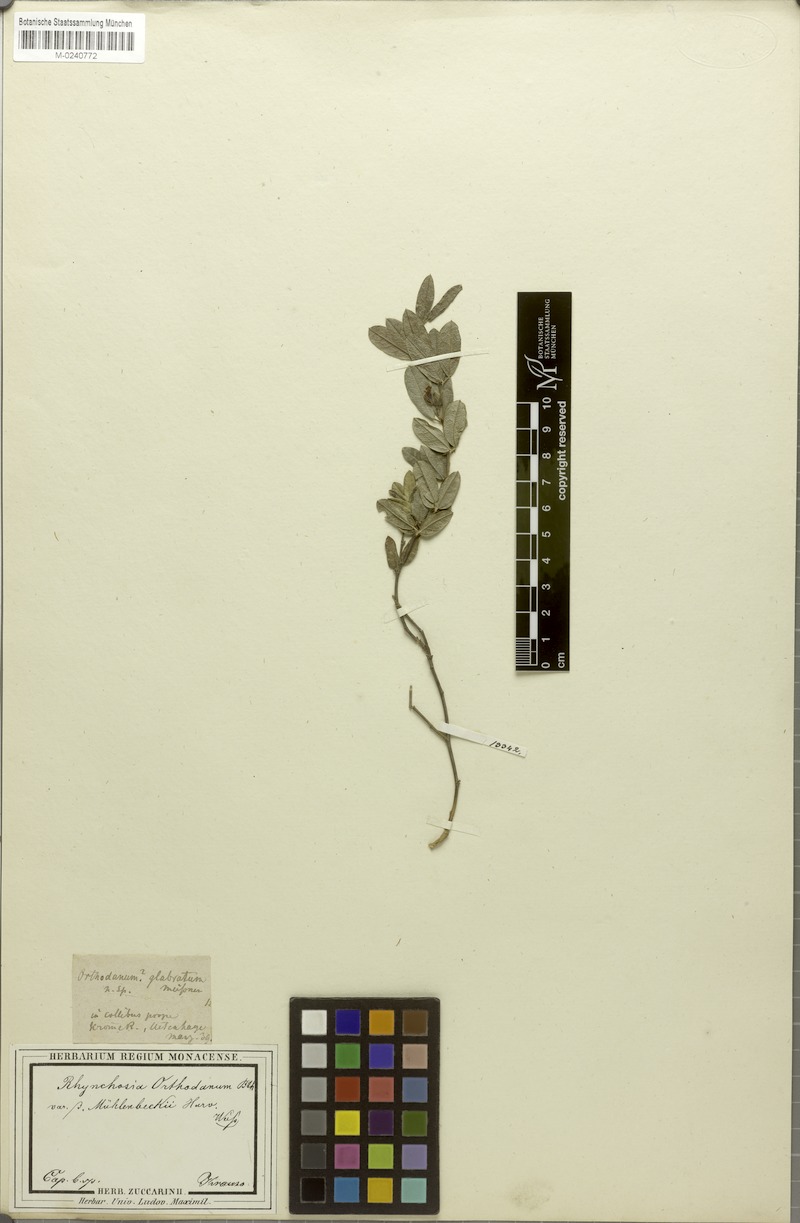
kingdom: Plantae
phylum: Tracheophyta
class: Magnoliopsida
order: Fabales
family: Fabaceae
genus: Rhynchosia
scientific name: Rhynchosia sordida
